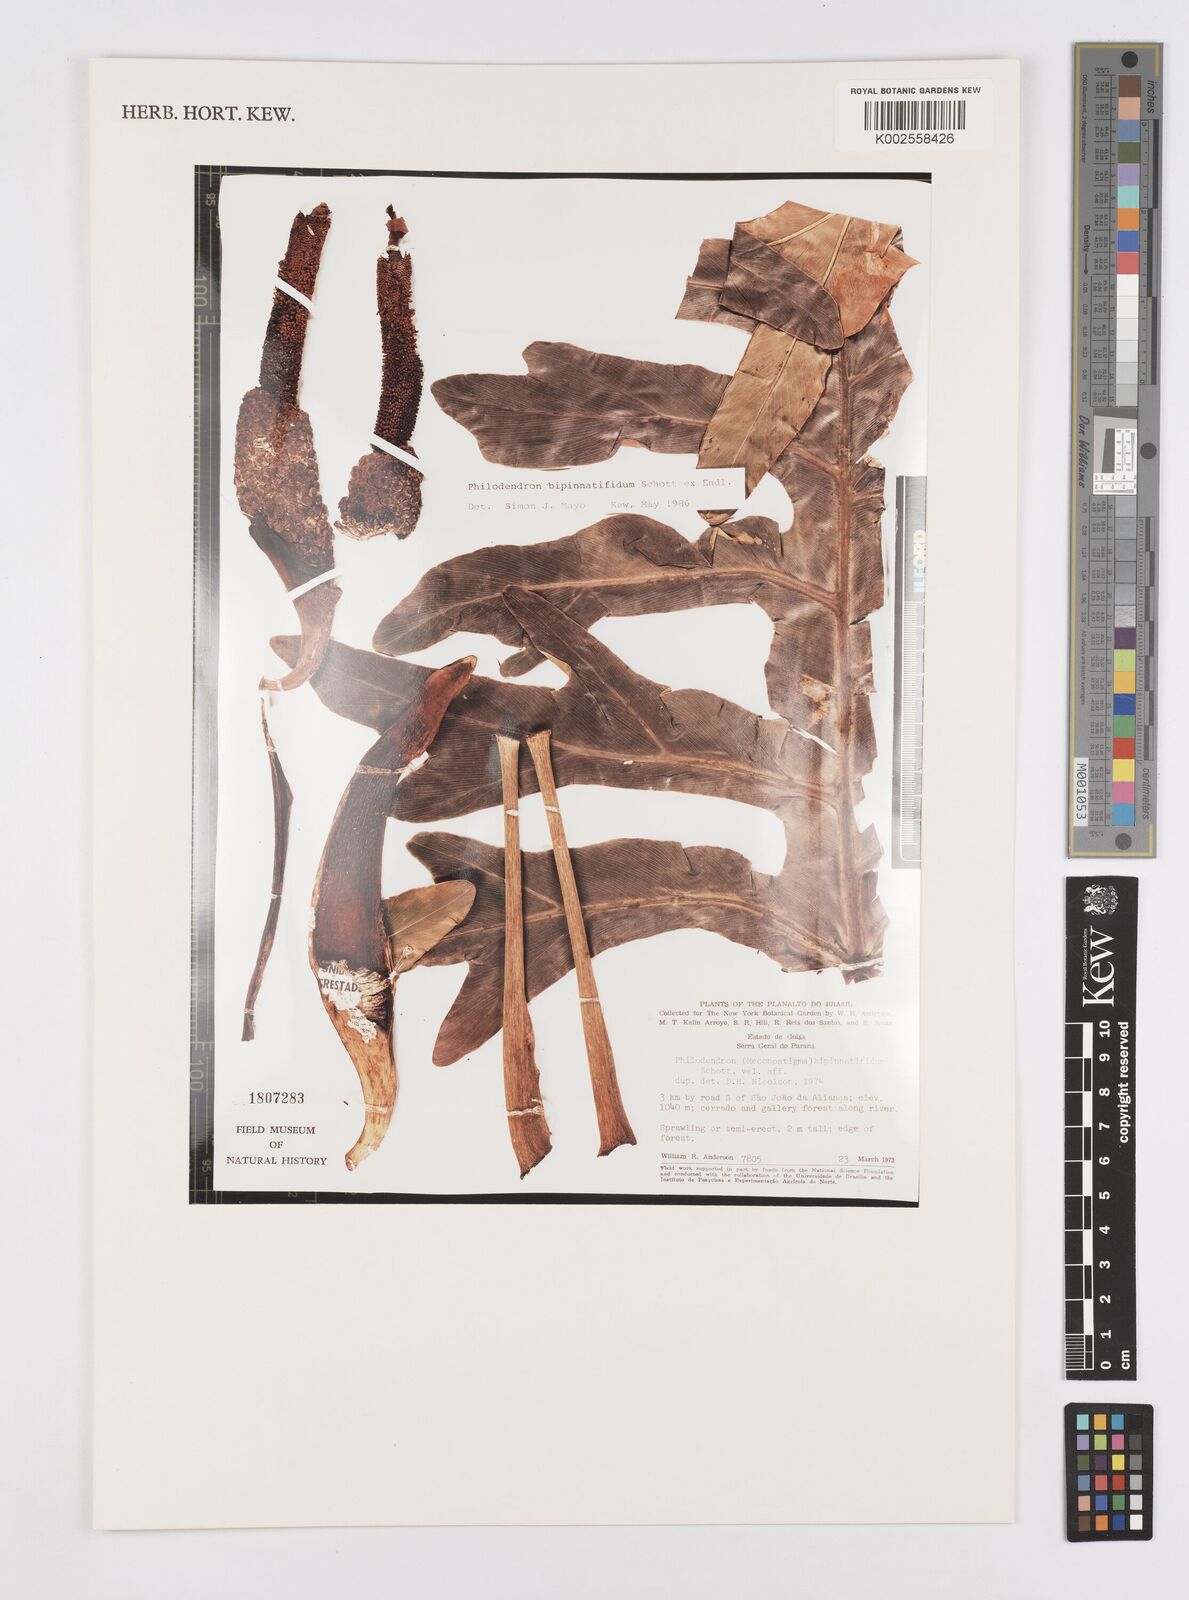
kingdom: Plantae
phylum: Tracheophyta
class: Liliopsida
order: Alismatales
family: Araceae
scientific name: Araceae
